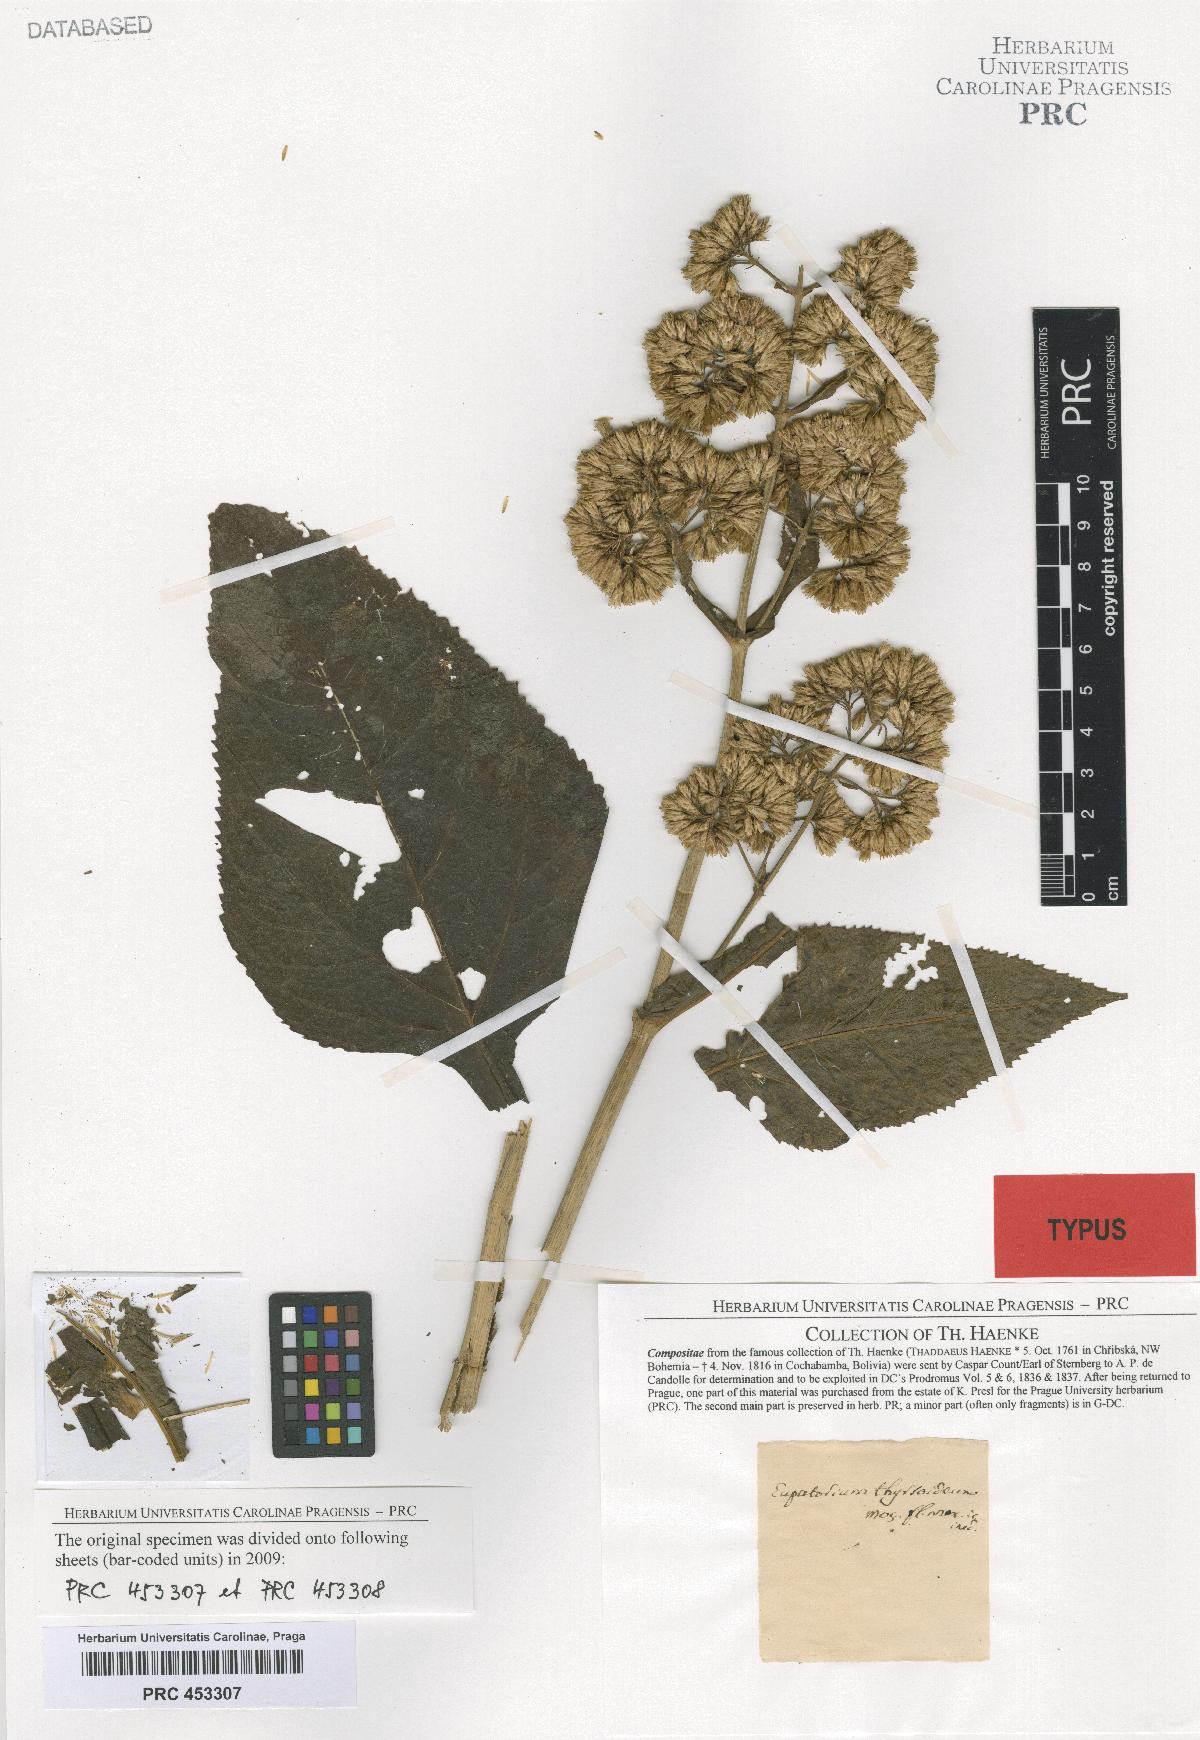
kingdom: Plantae
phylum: Tracheophyta
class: Magnoliopsida
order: Asterales
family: Asteraceae
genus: Critonia
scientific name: Critonia quadrangularis
